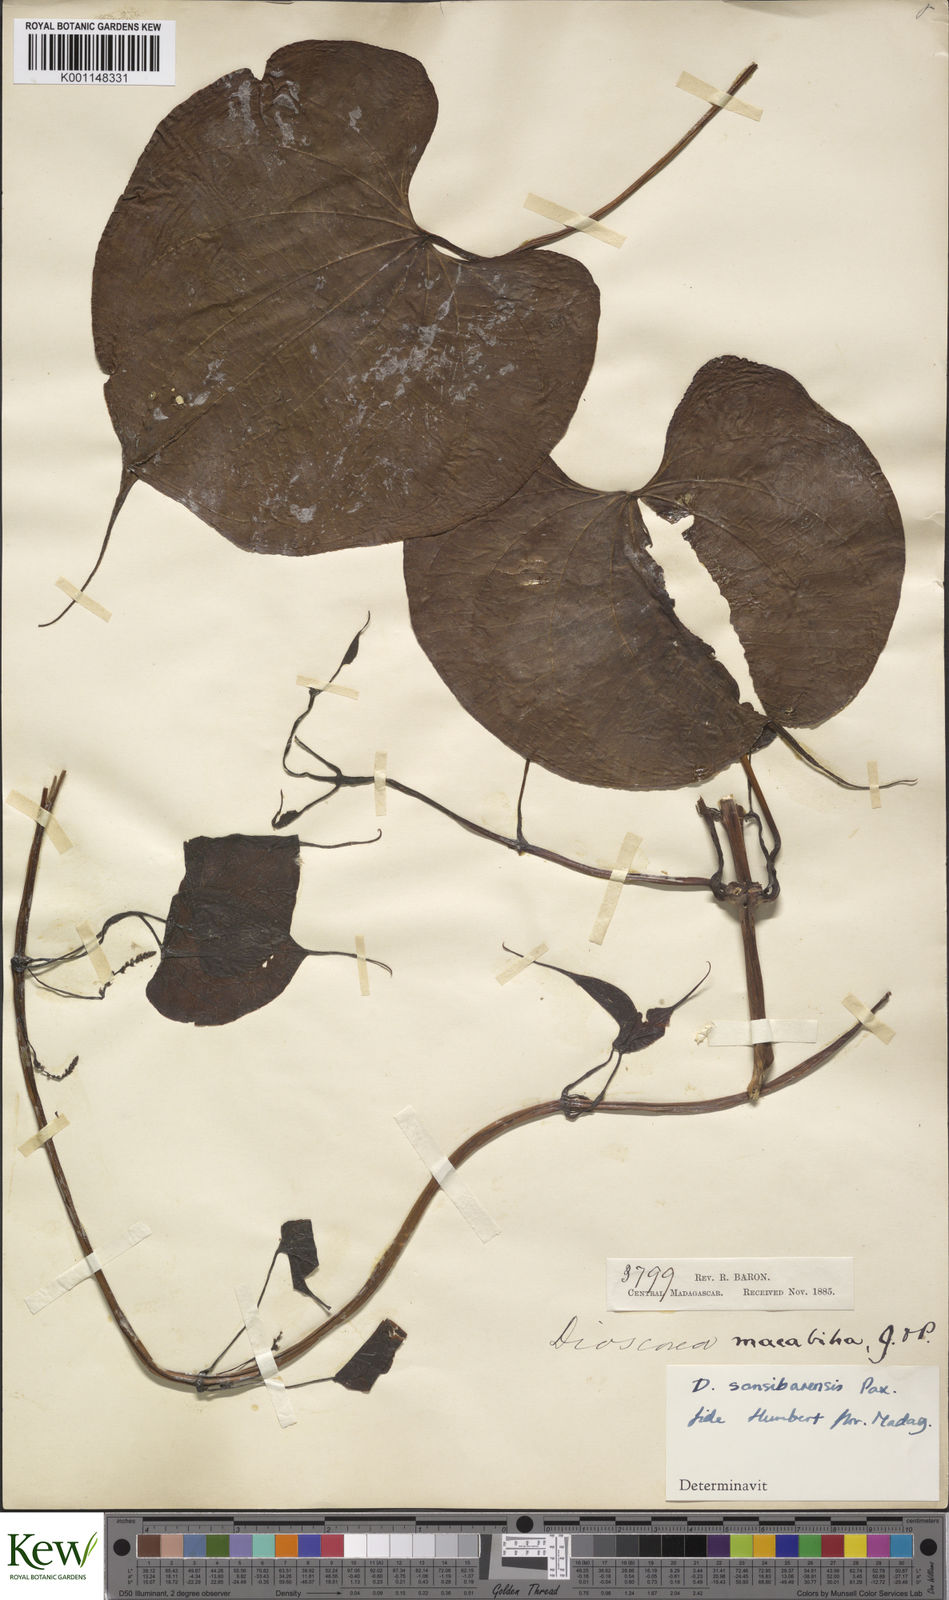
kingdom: Plantae
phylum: Tracheophyta
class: Liliopsida
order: Dioscoreales
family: Dioscoreaceae
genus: Dioscorea
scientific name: Dioscorea sansibarensis
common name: Zanzibar yam
